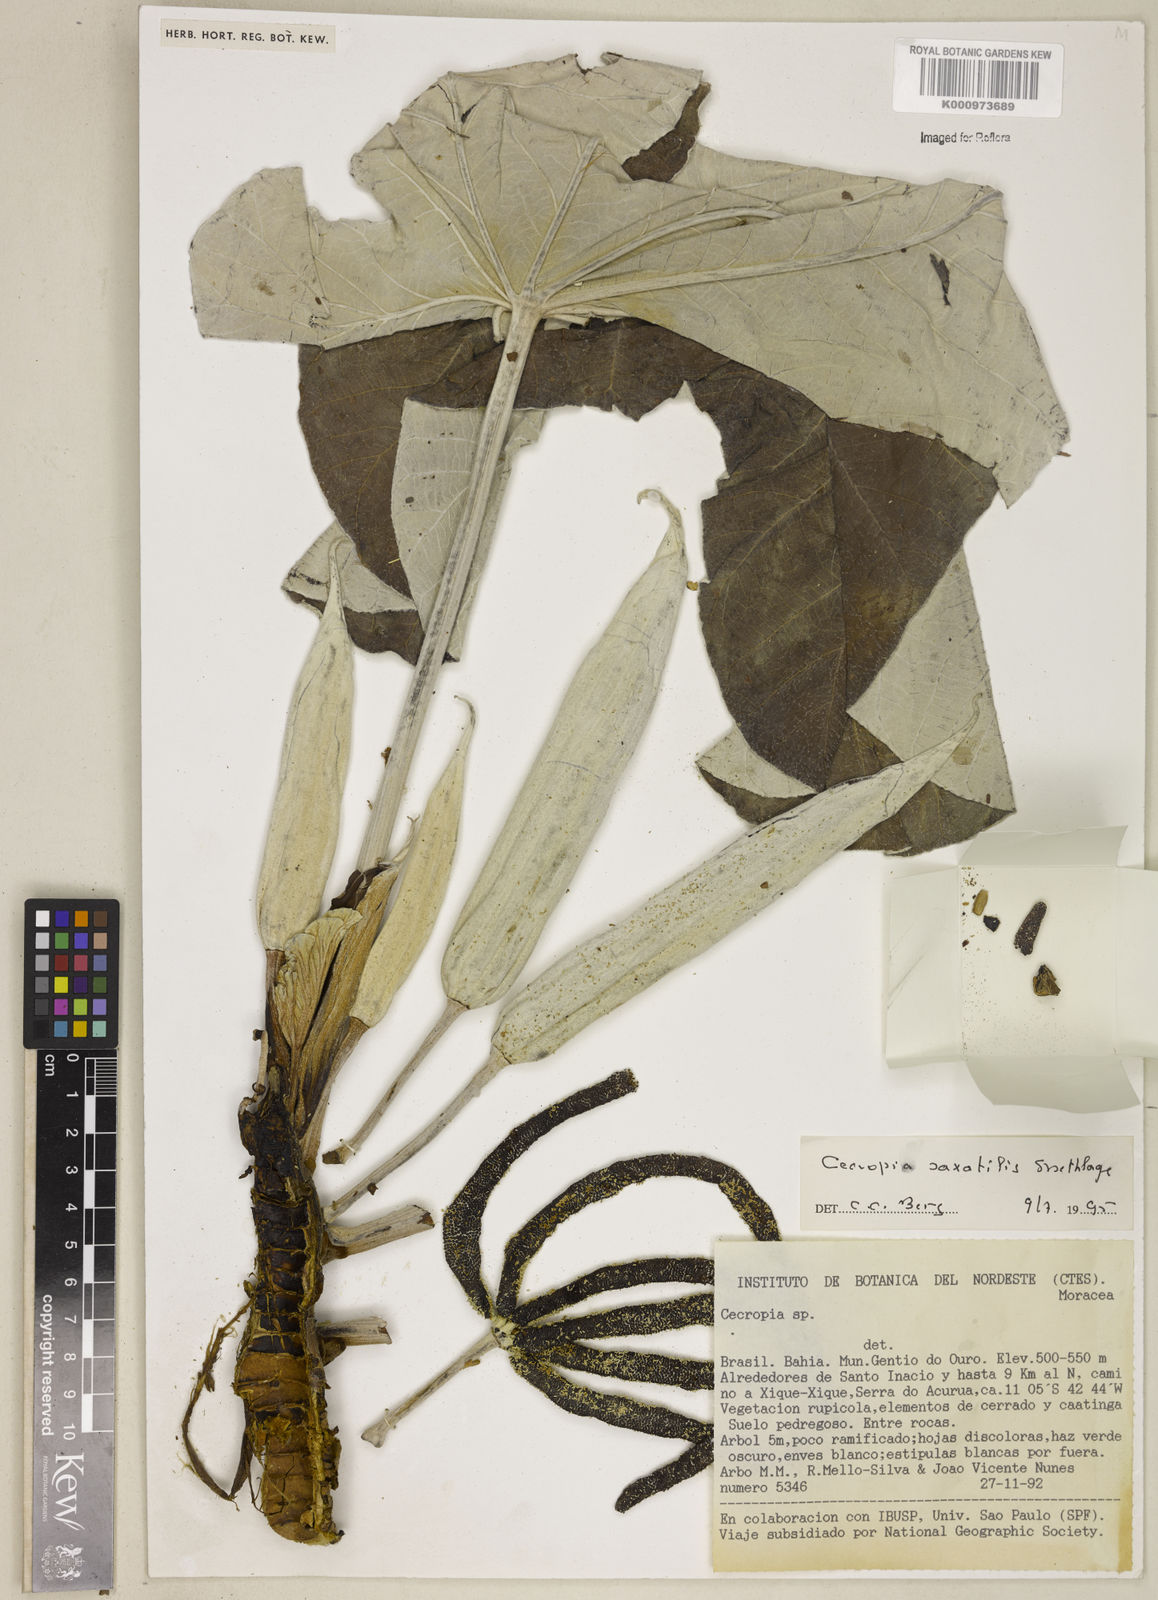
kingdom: Plantae
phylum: Tracheophyta
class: Magnoliopsida
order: Rosales
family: Urticaceae
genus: Cecropia
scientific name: Cecropia saxatilis
